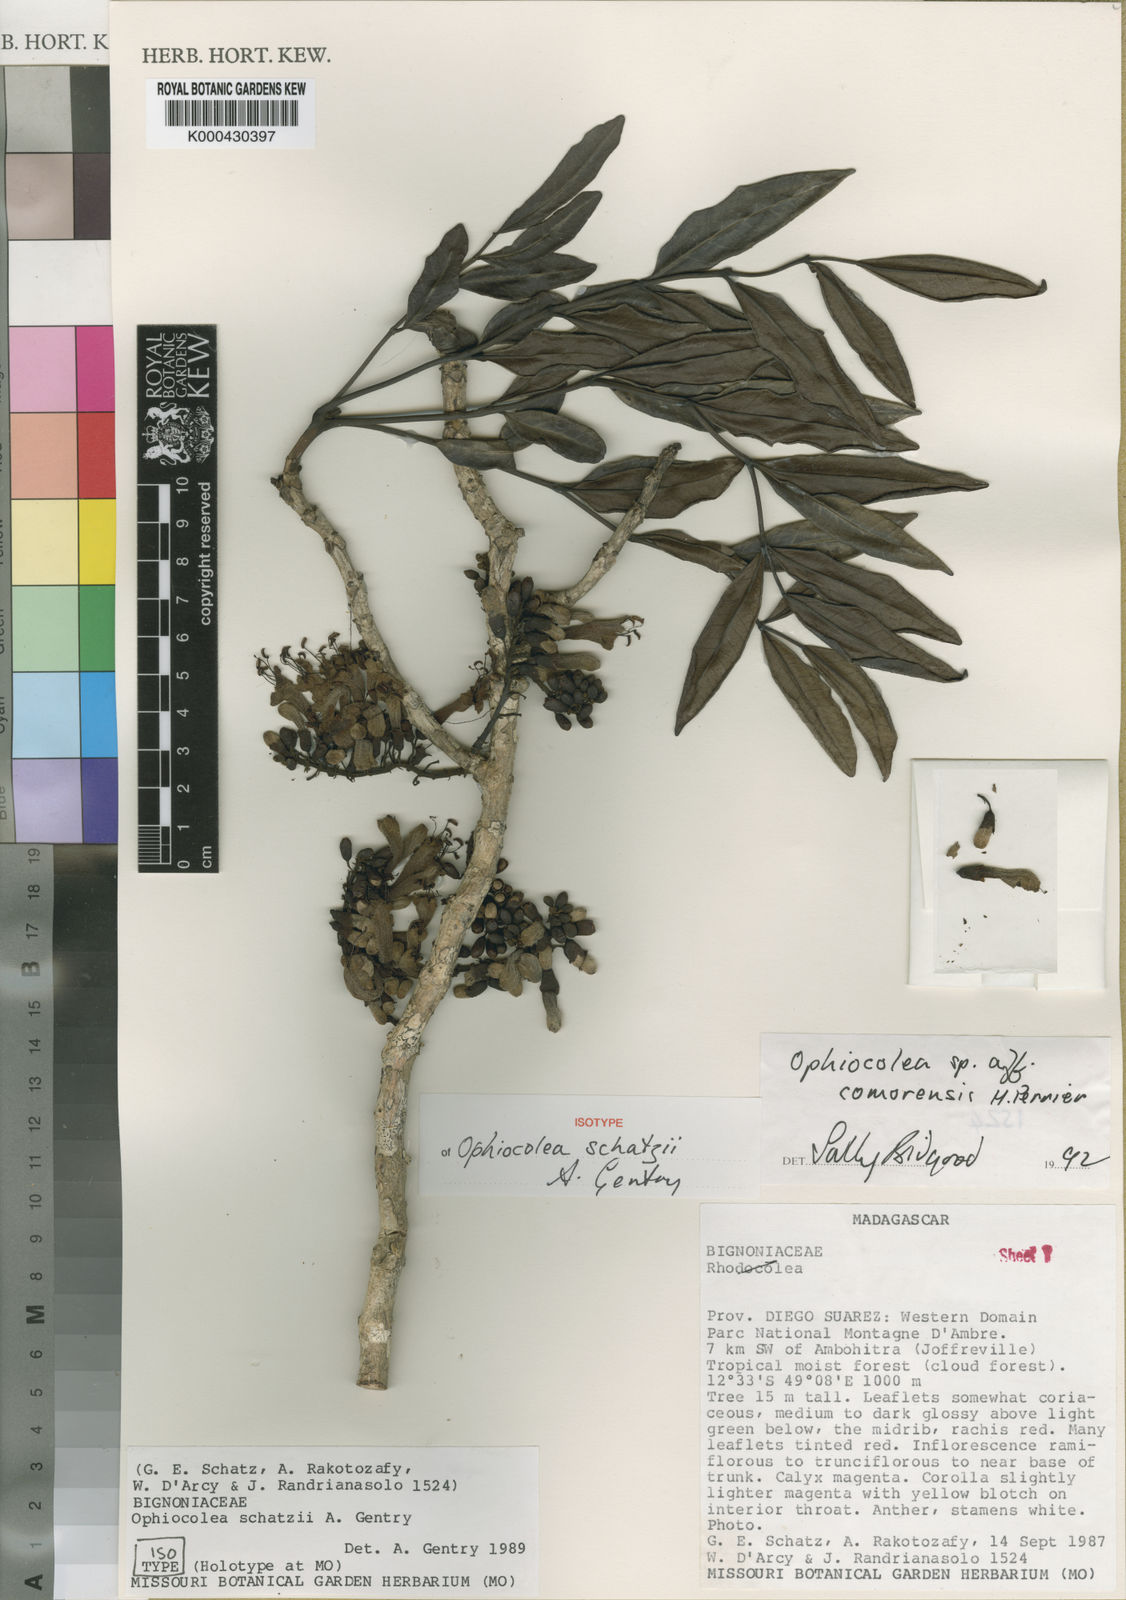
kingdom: Plantae
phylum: Tracheophyta
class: Magnoliopsida
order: Lamiales
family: Bignoniaceae
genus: Colea
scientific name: Colea ambrensis
